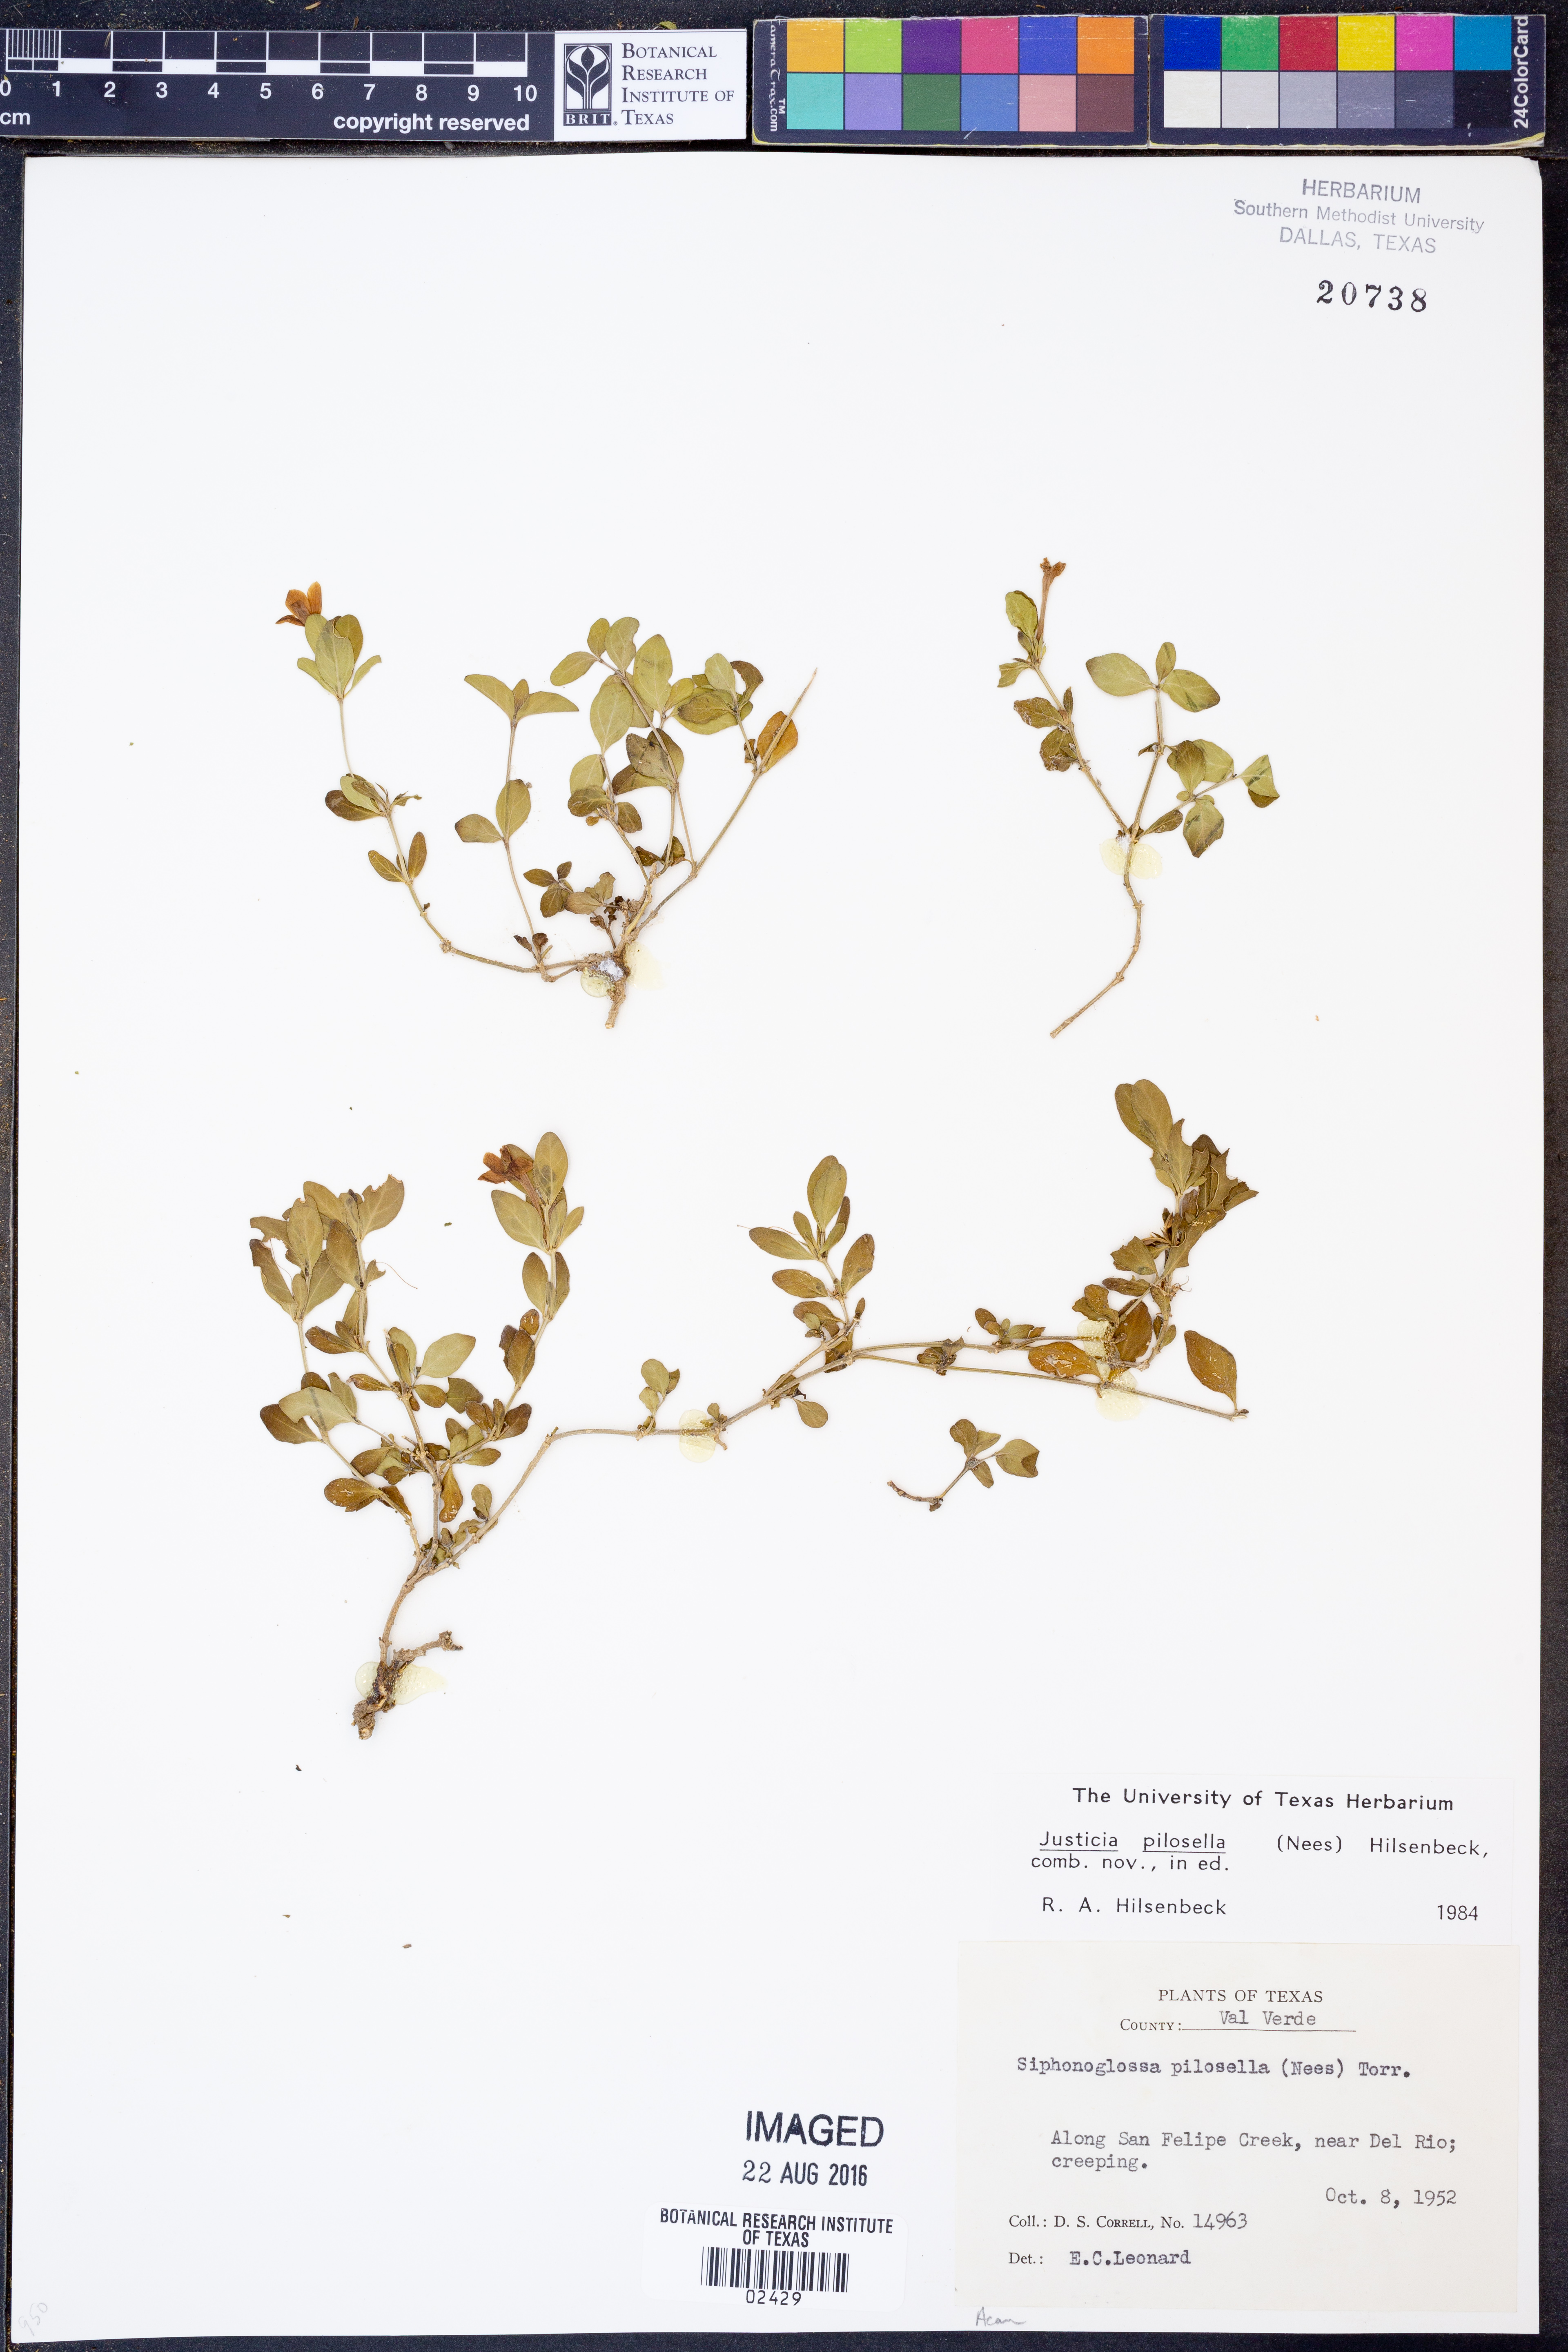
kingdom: Plantae
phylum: Tracheophyta
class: Magnoliopsida
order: Lamiales
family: Acanthaceae
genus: Justicia
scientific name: Justicia pilosella
